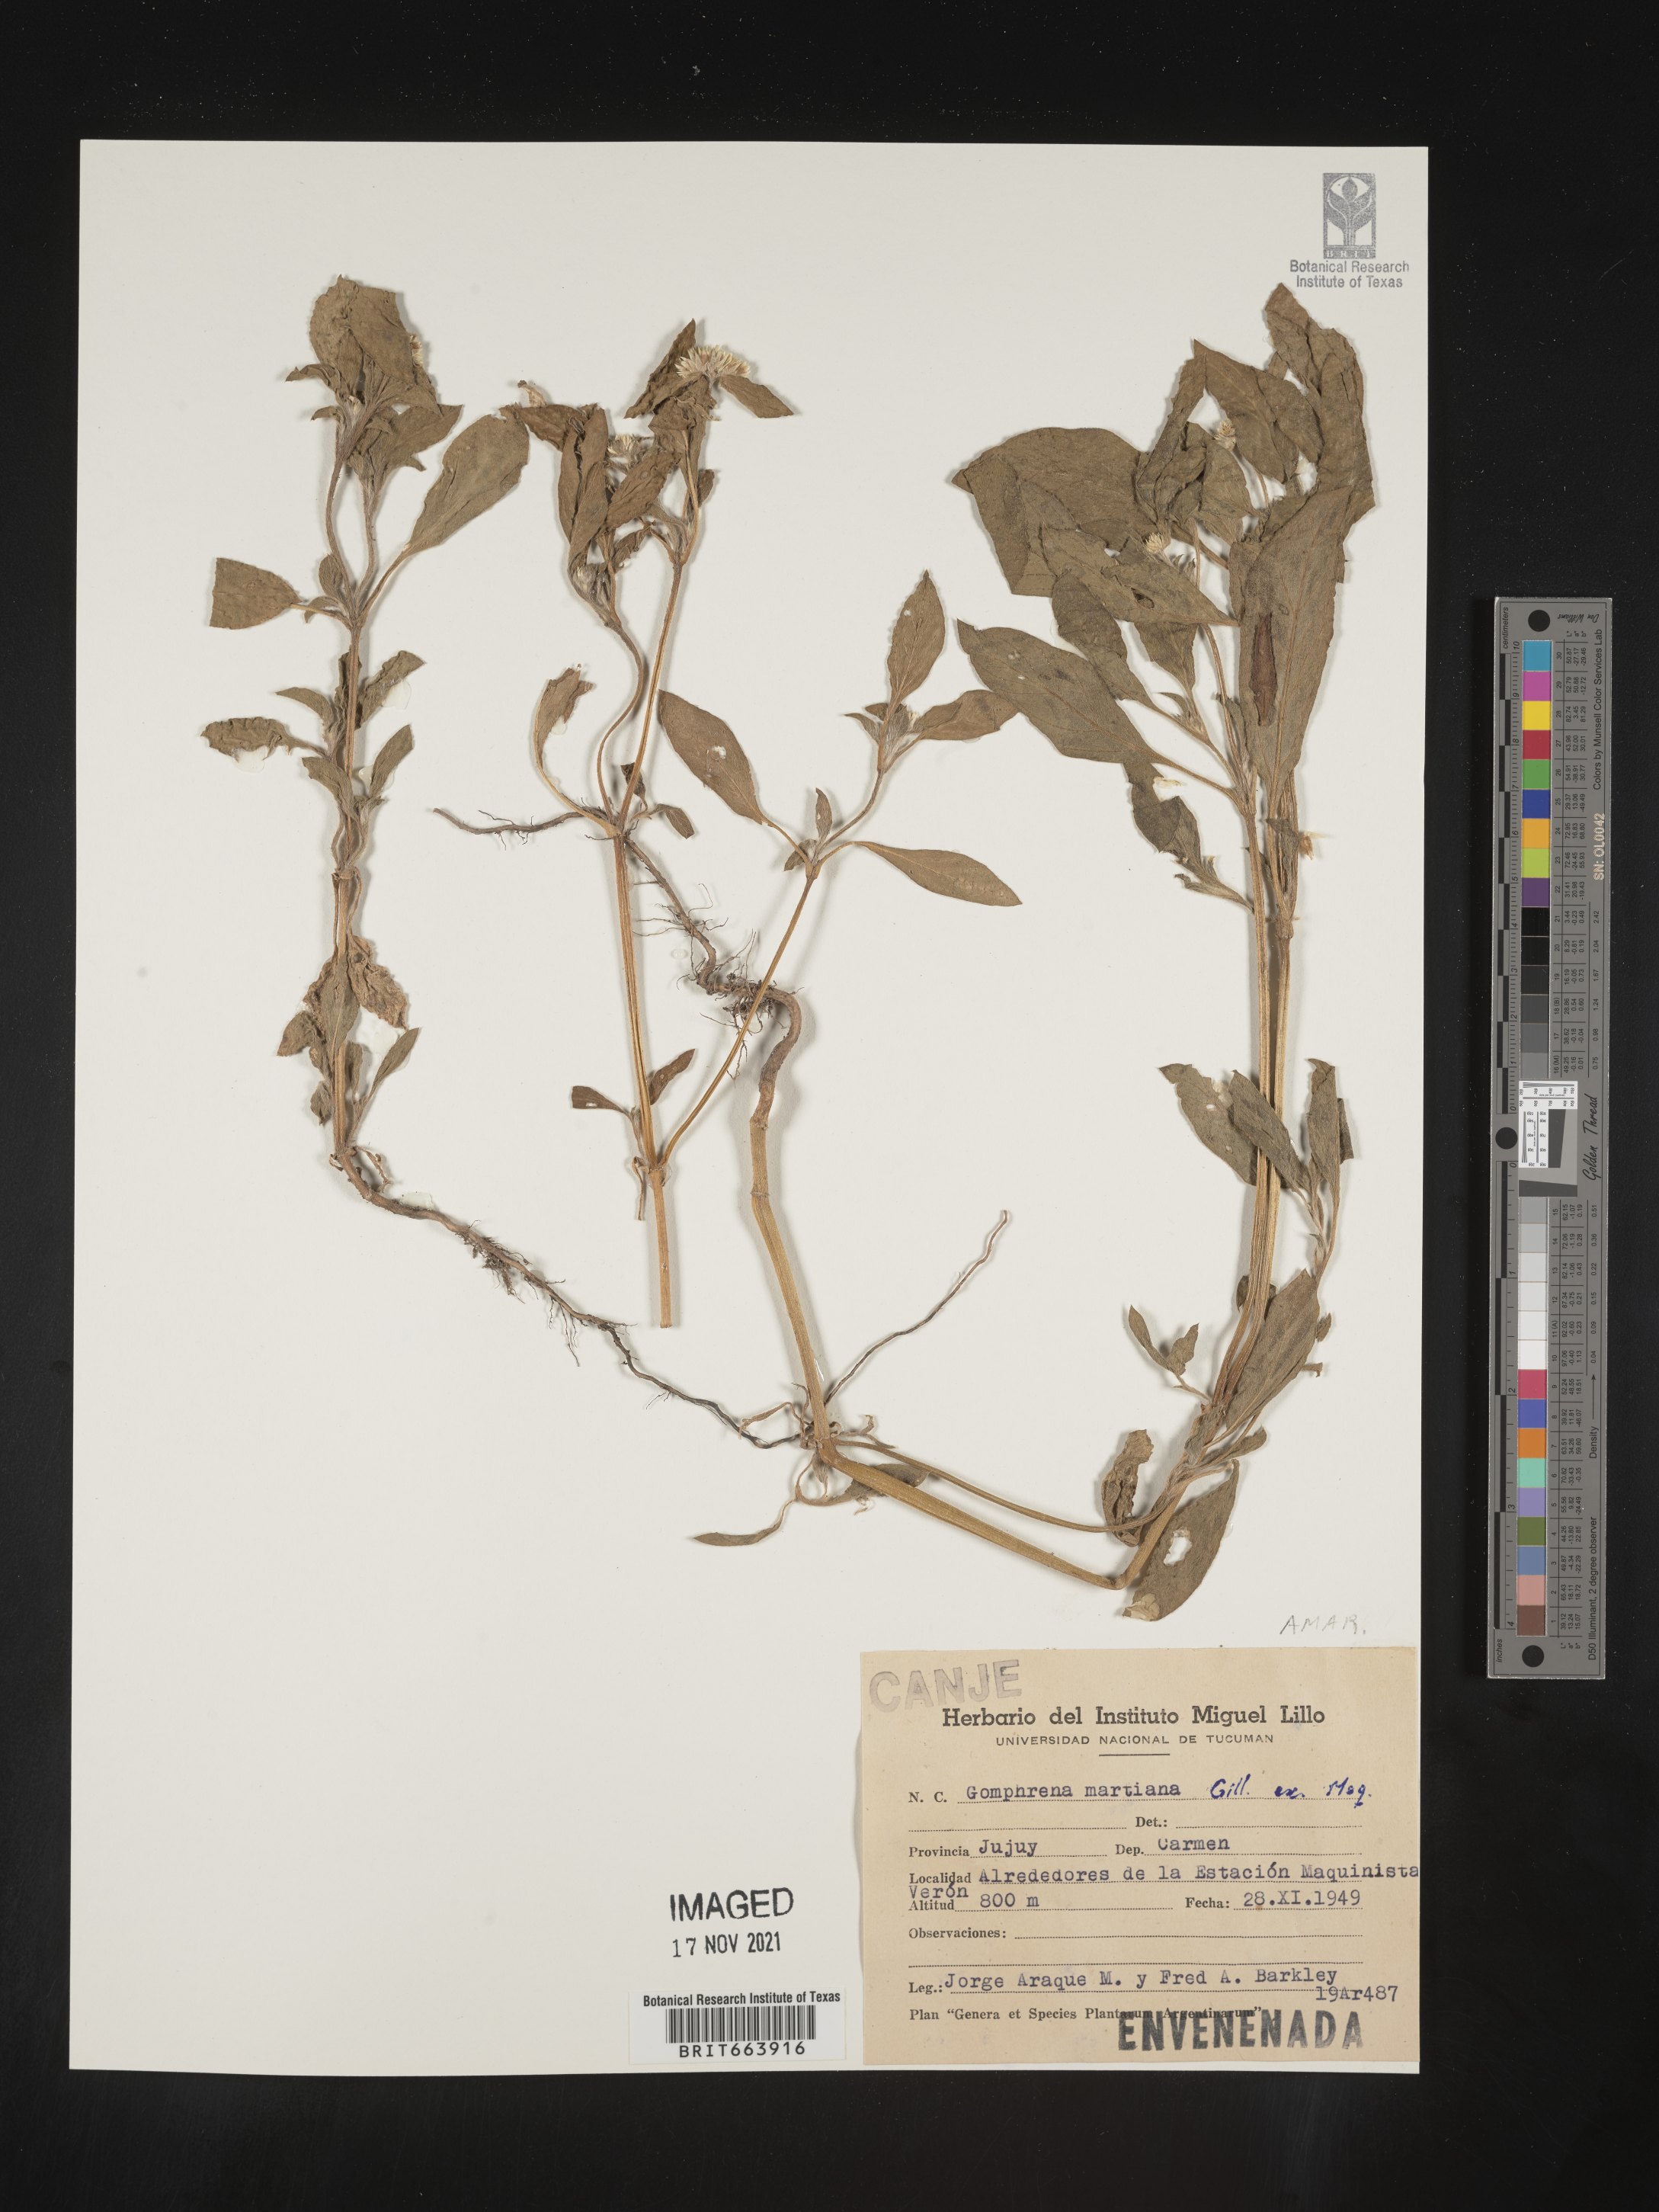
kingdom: Plantae
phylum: Tracheophyta
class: Magnoliopsida
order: Caryophyllales
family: Amaranthaceae
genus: Gomphrena
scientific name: Gomphrena
